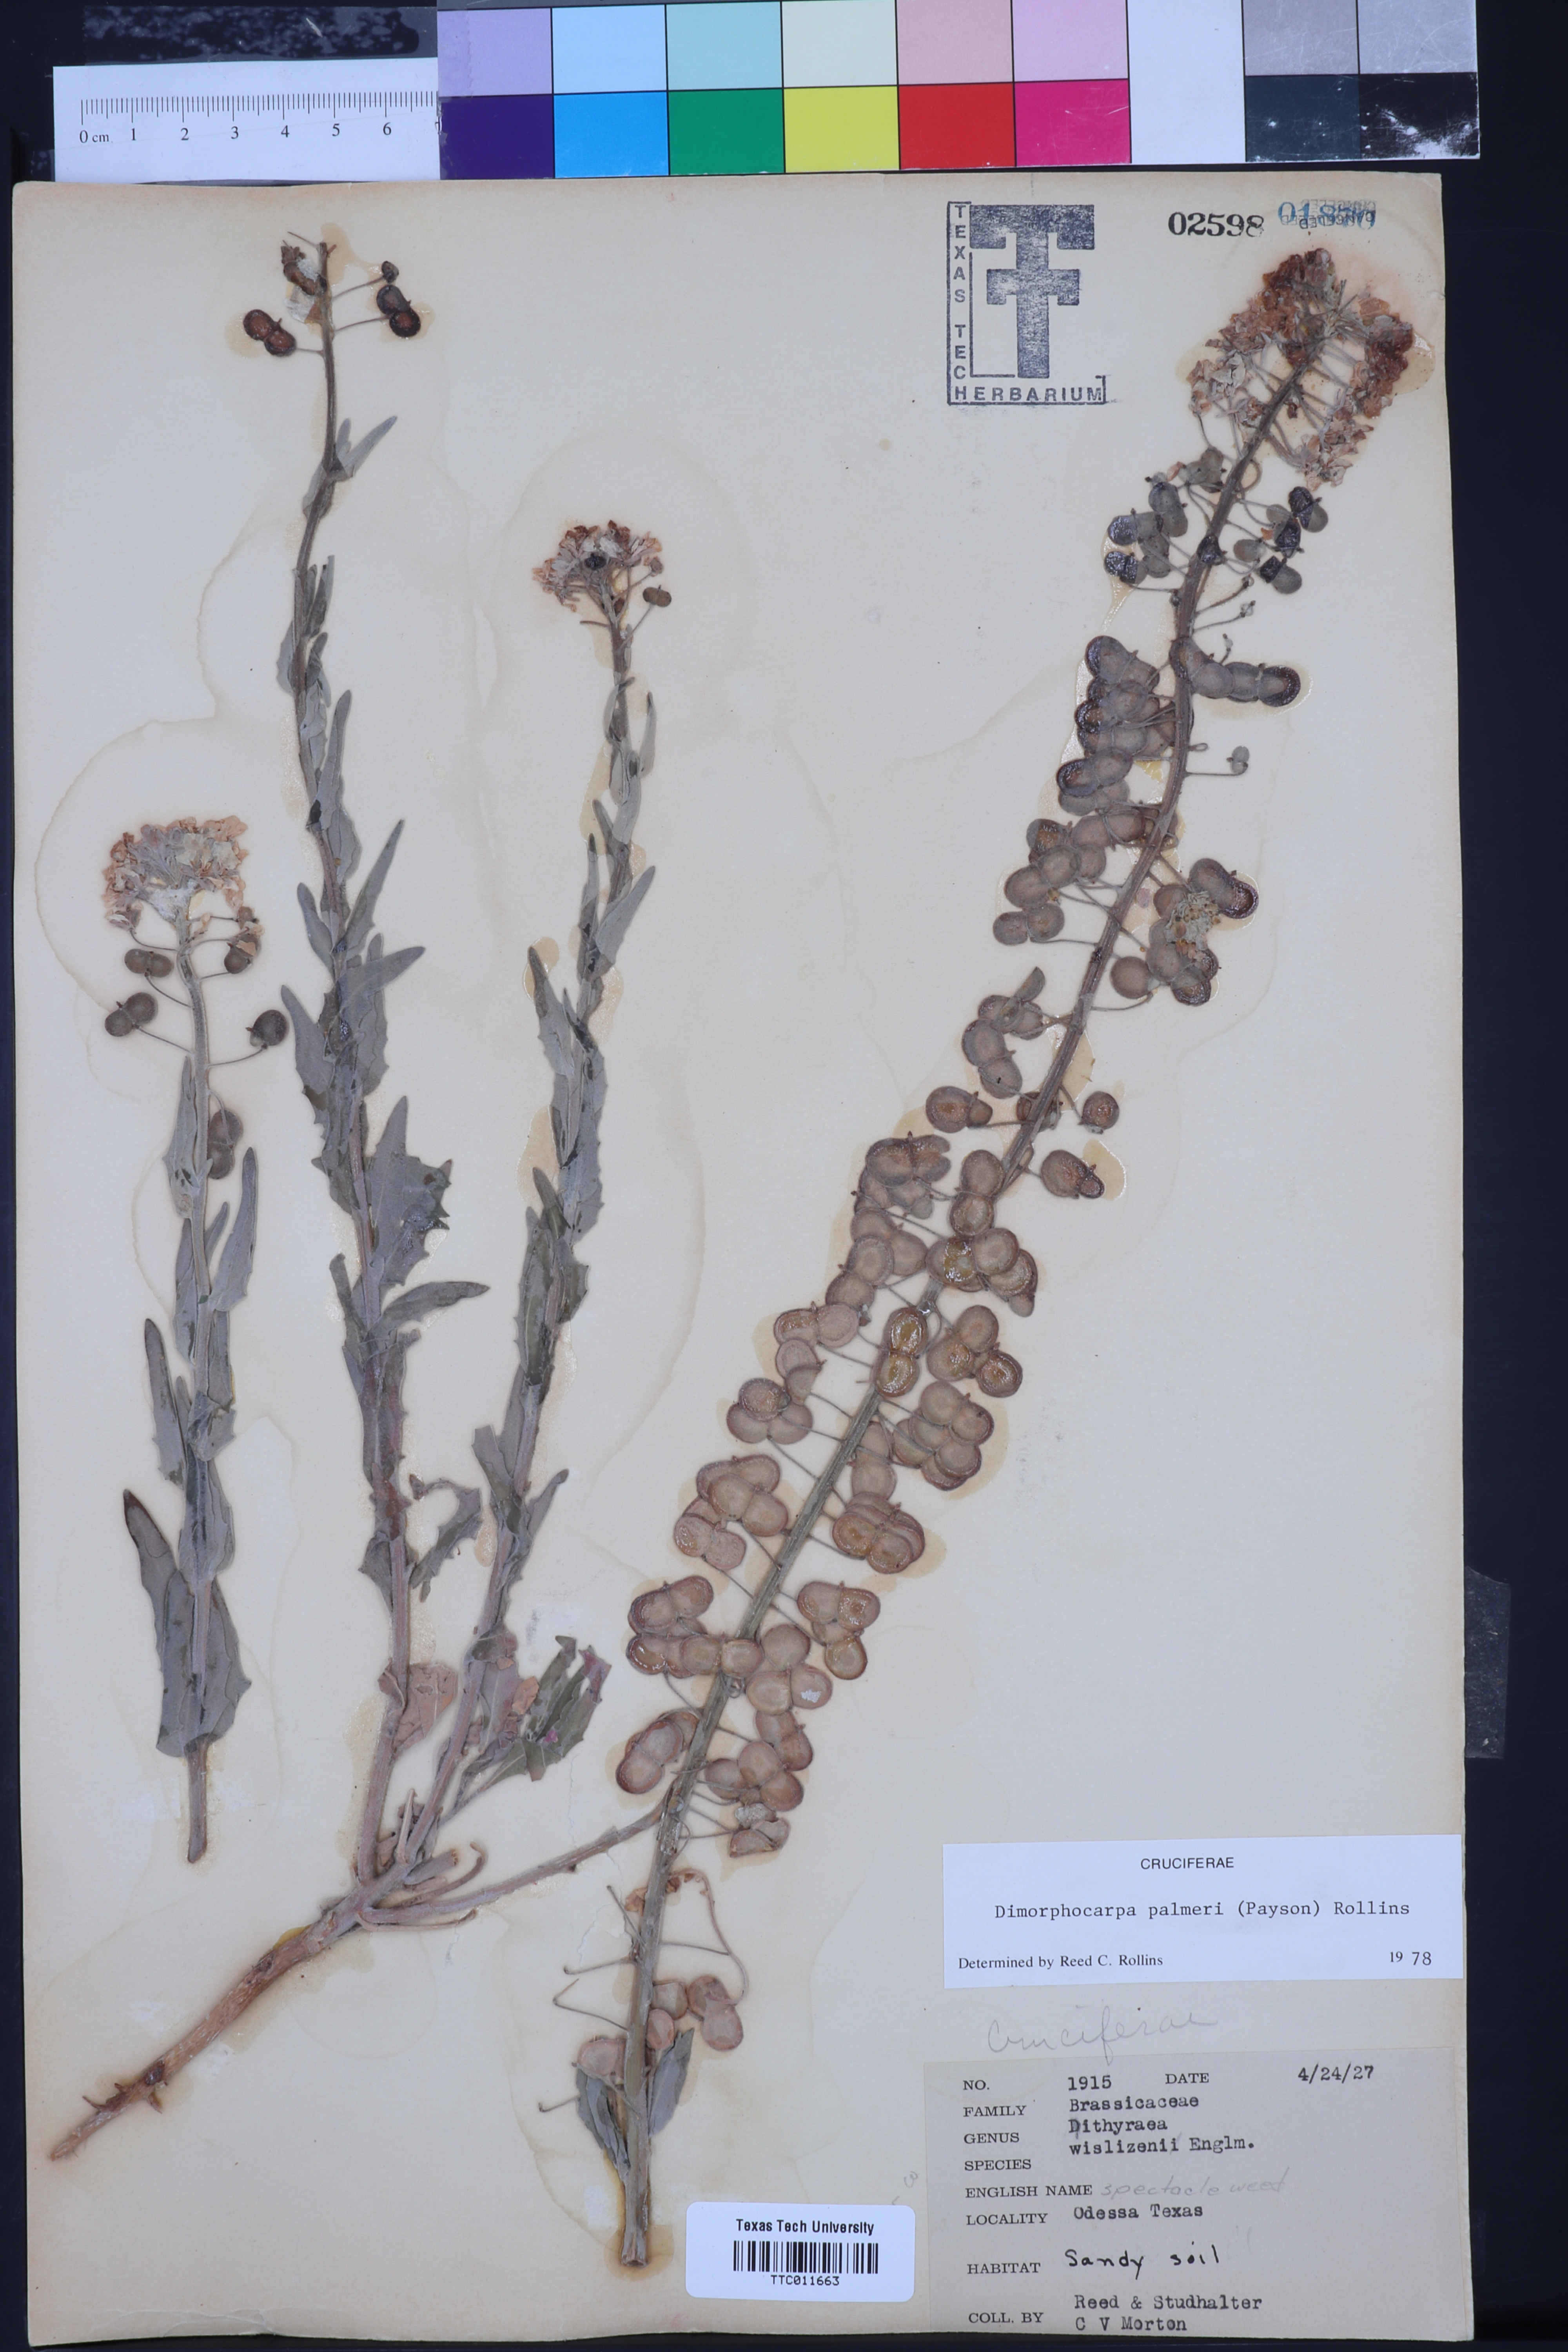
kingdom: Plantae
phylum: Tracheophyta
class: Magnoliopsida
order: Brassicales
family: Brassicaceae
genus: Dimorphocarpa
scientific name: Dimorphocarpa candicans
